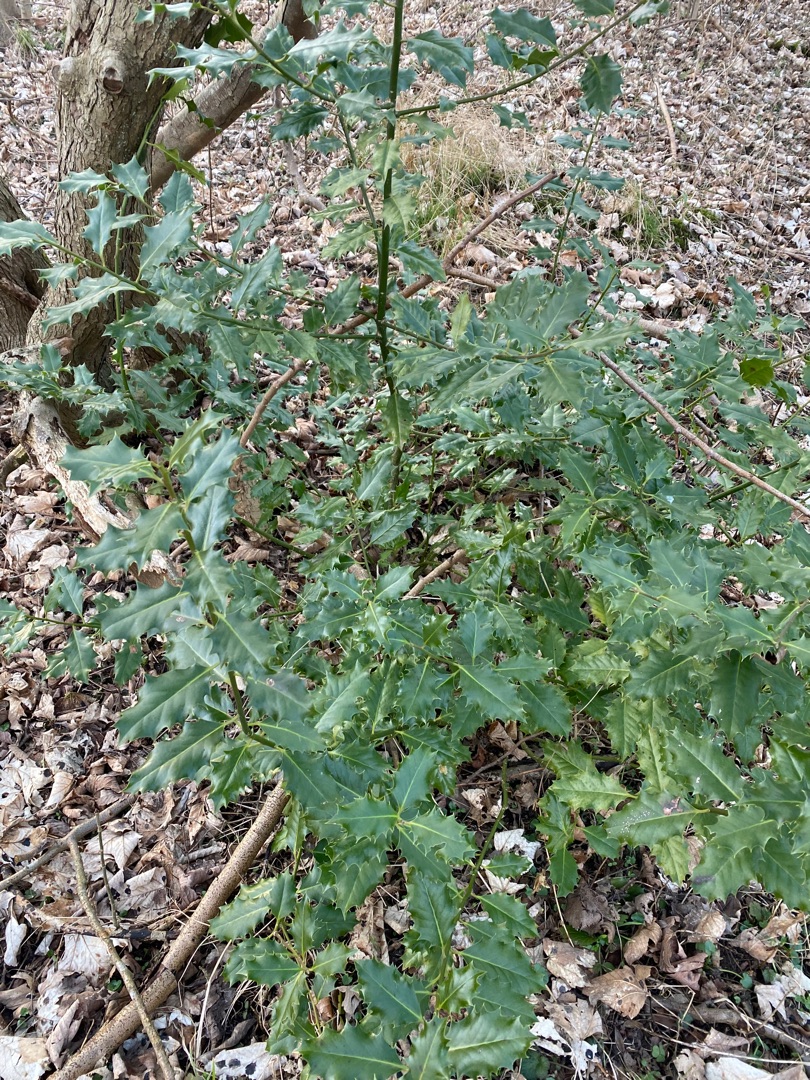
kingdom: Plantae
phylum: Tracheophyta
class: Magnoliopsida
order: Aquifoliales
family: Aquifoliaceae
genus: Ilex
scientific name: Ilex aquifolium
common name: Kristtorn
